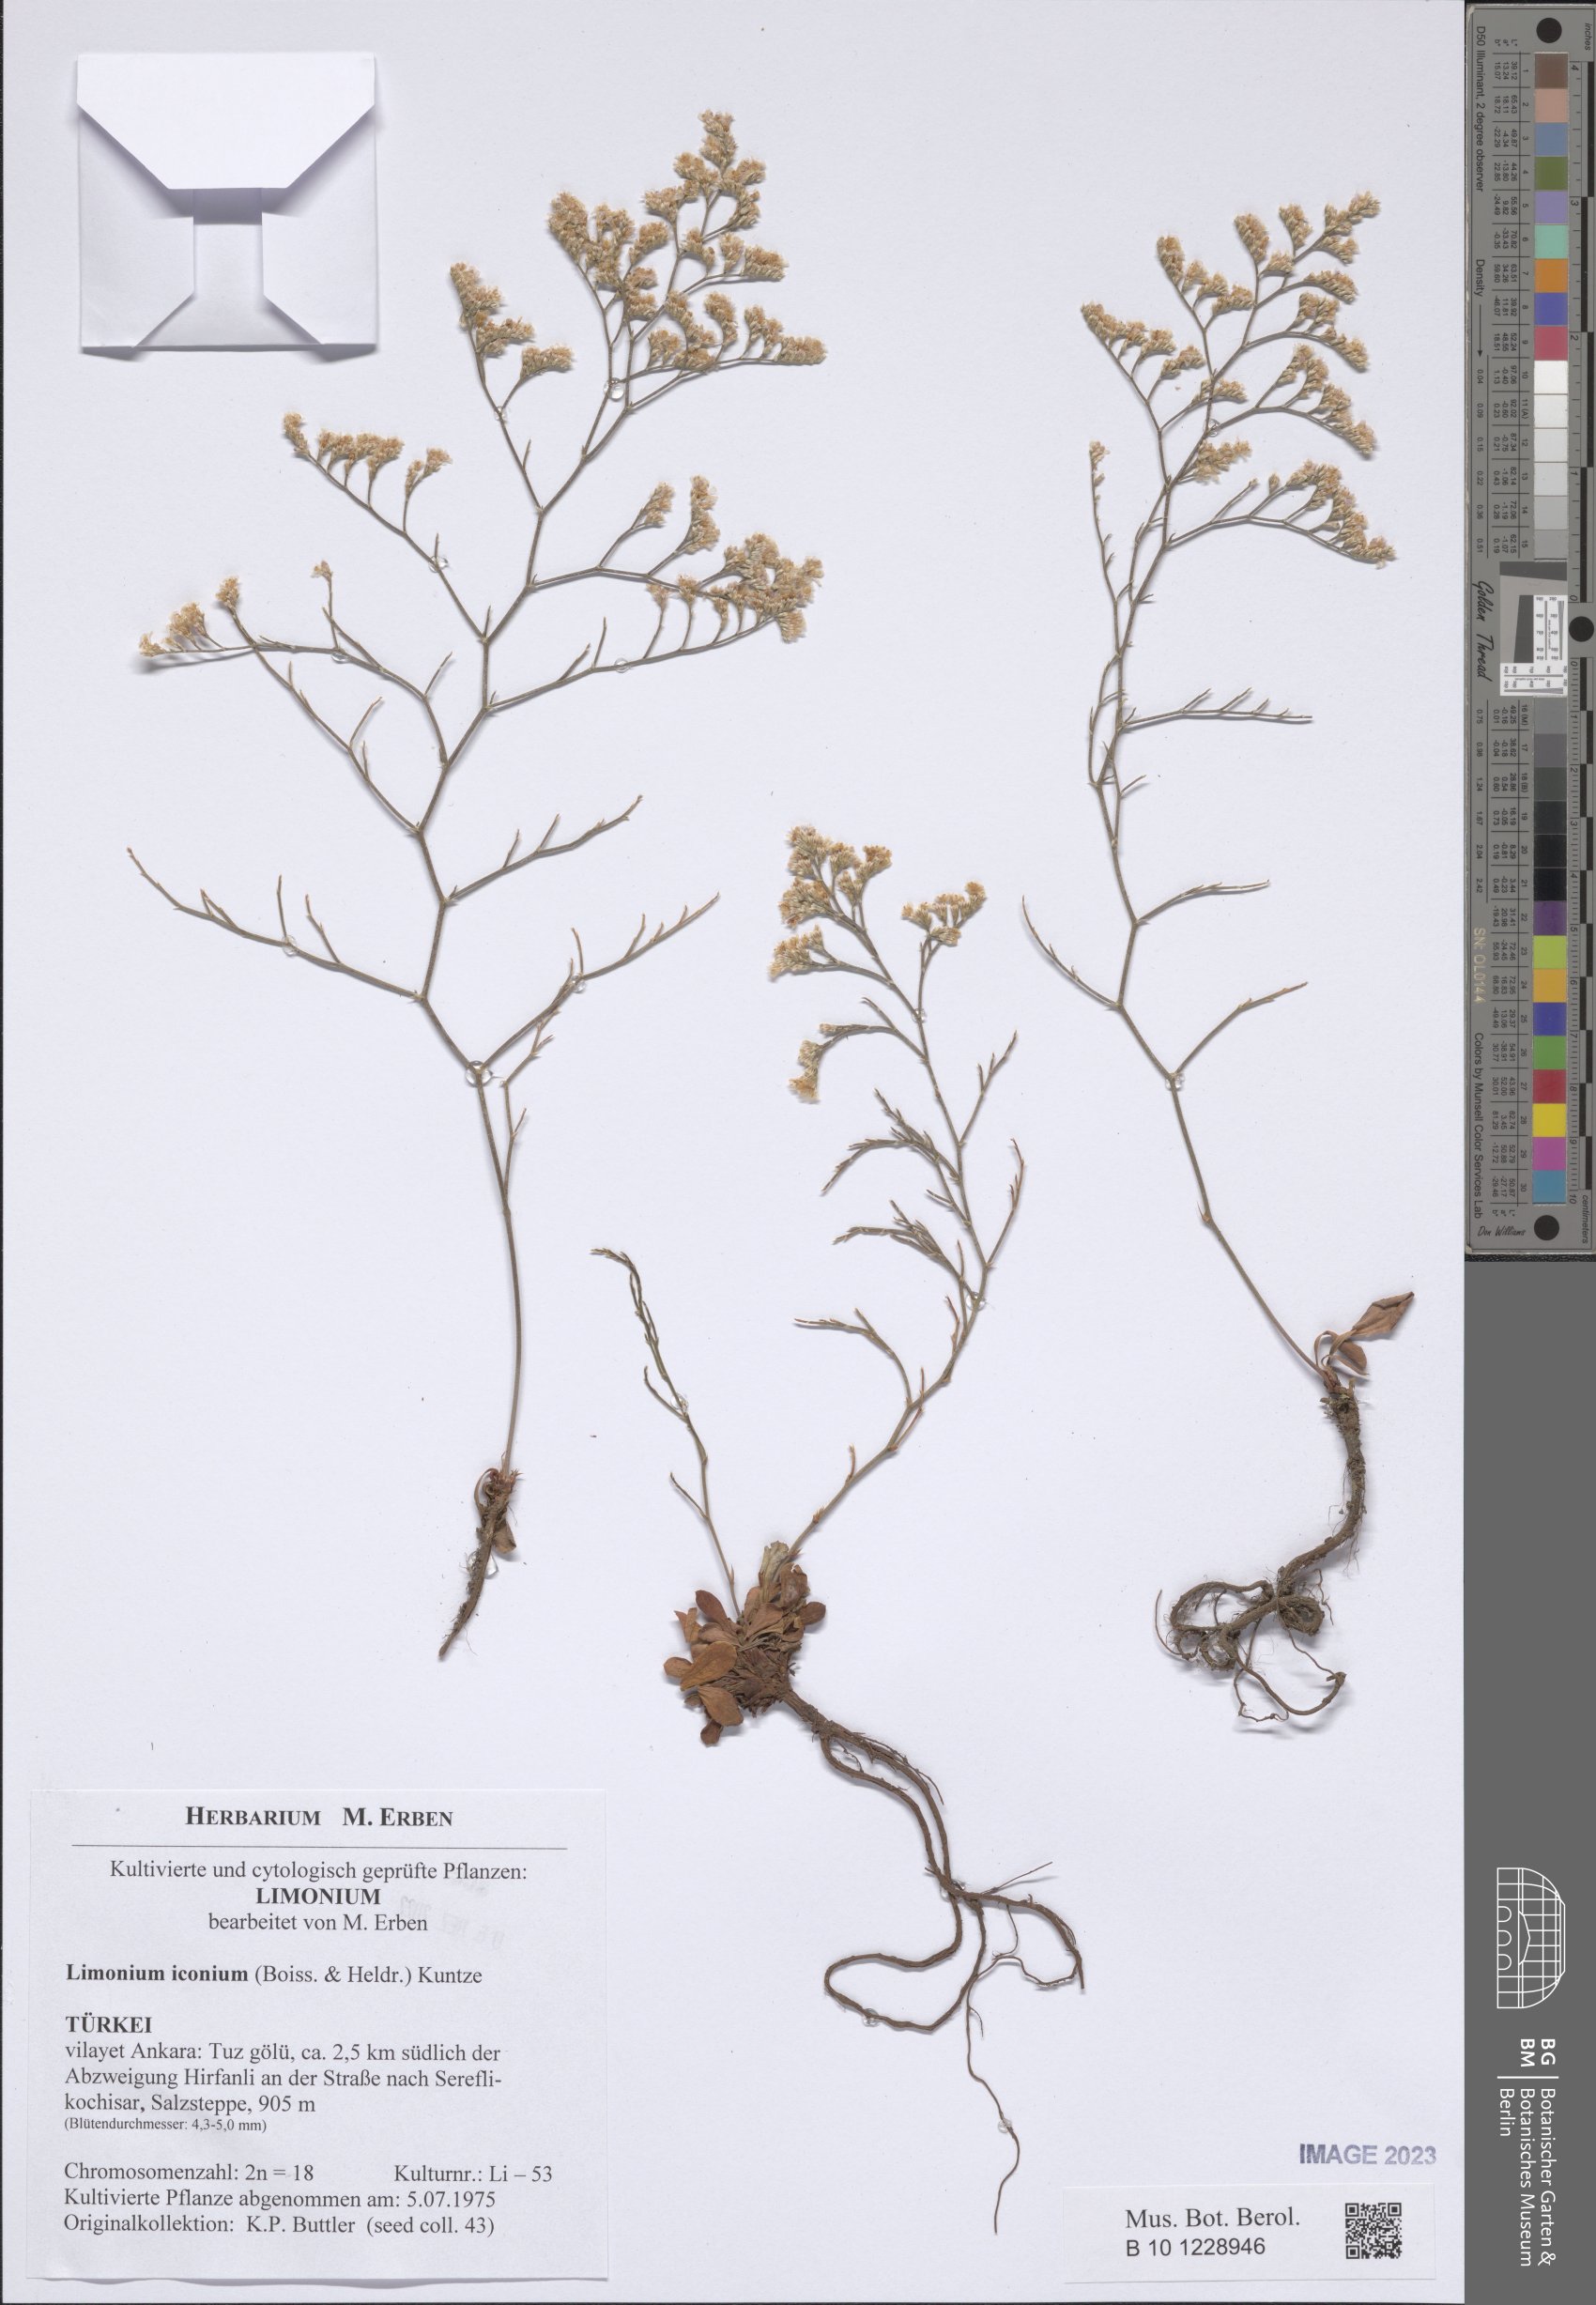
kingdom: Plantae
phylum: Tracheophyta
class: Magnoliopsida
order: Caryophyllales
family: Plumbaginaceae
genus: Limonium
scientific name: Limonium iconium
